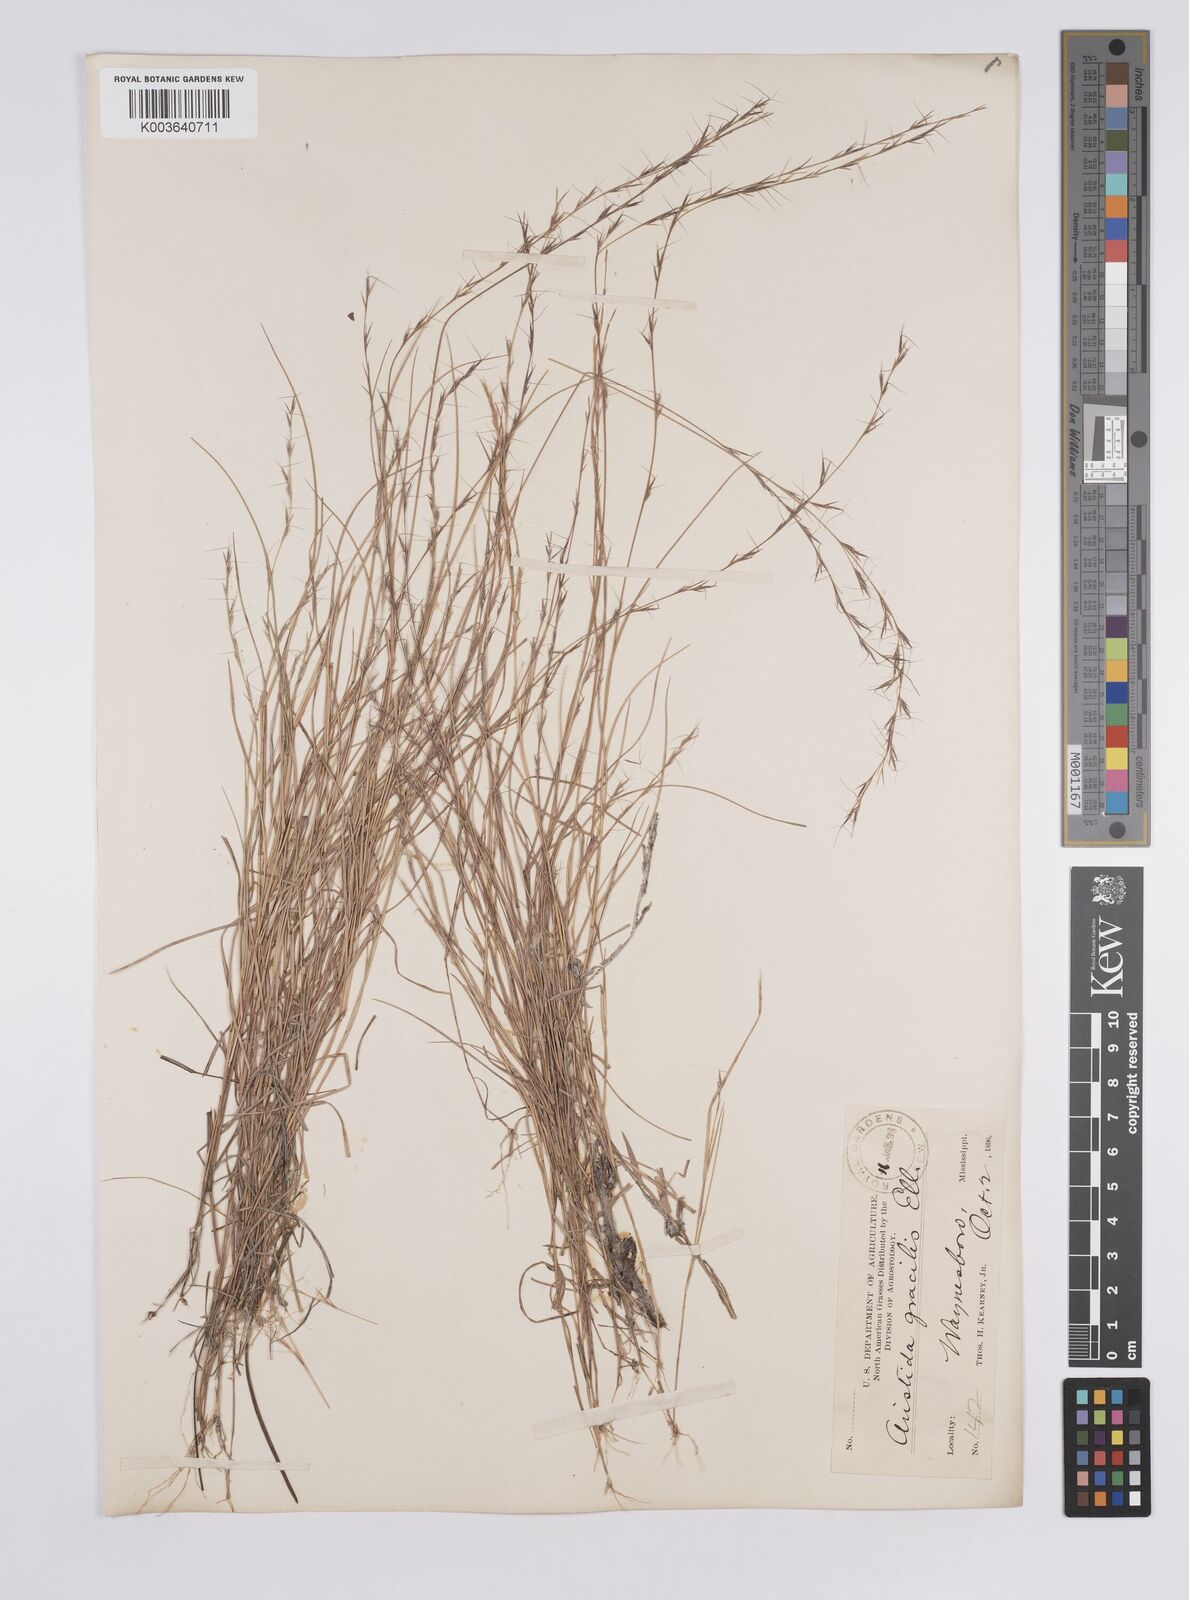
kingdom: Plantae
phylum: Tracheophyta
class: Liliopsida
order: Poales
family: Poaceae
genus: Aristida
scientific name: Aristida longespica
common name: Long-spiked triple-awned grass
